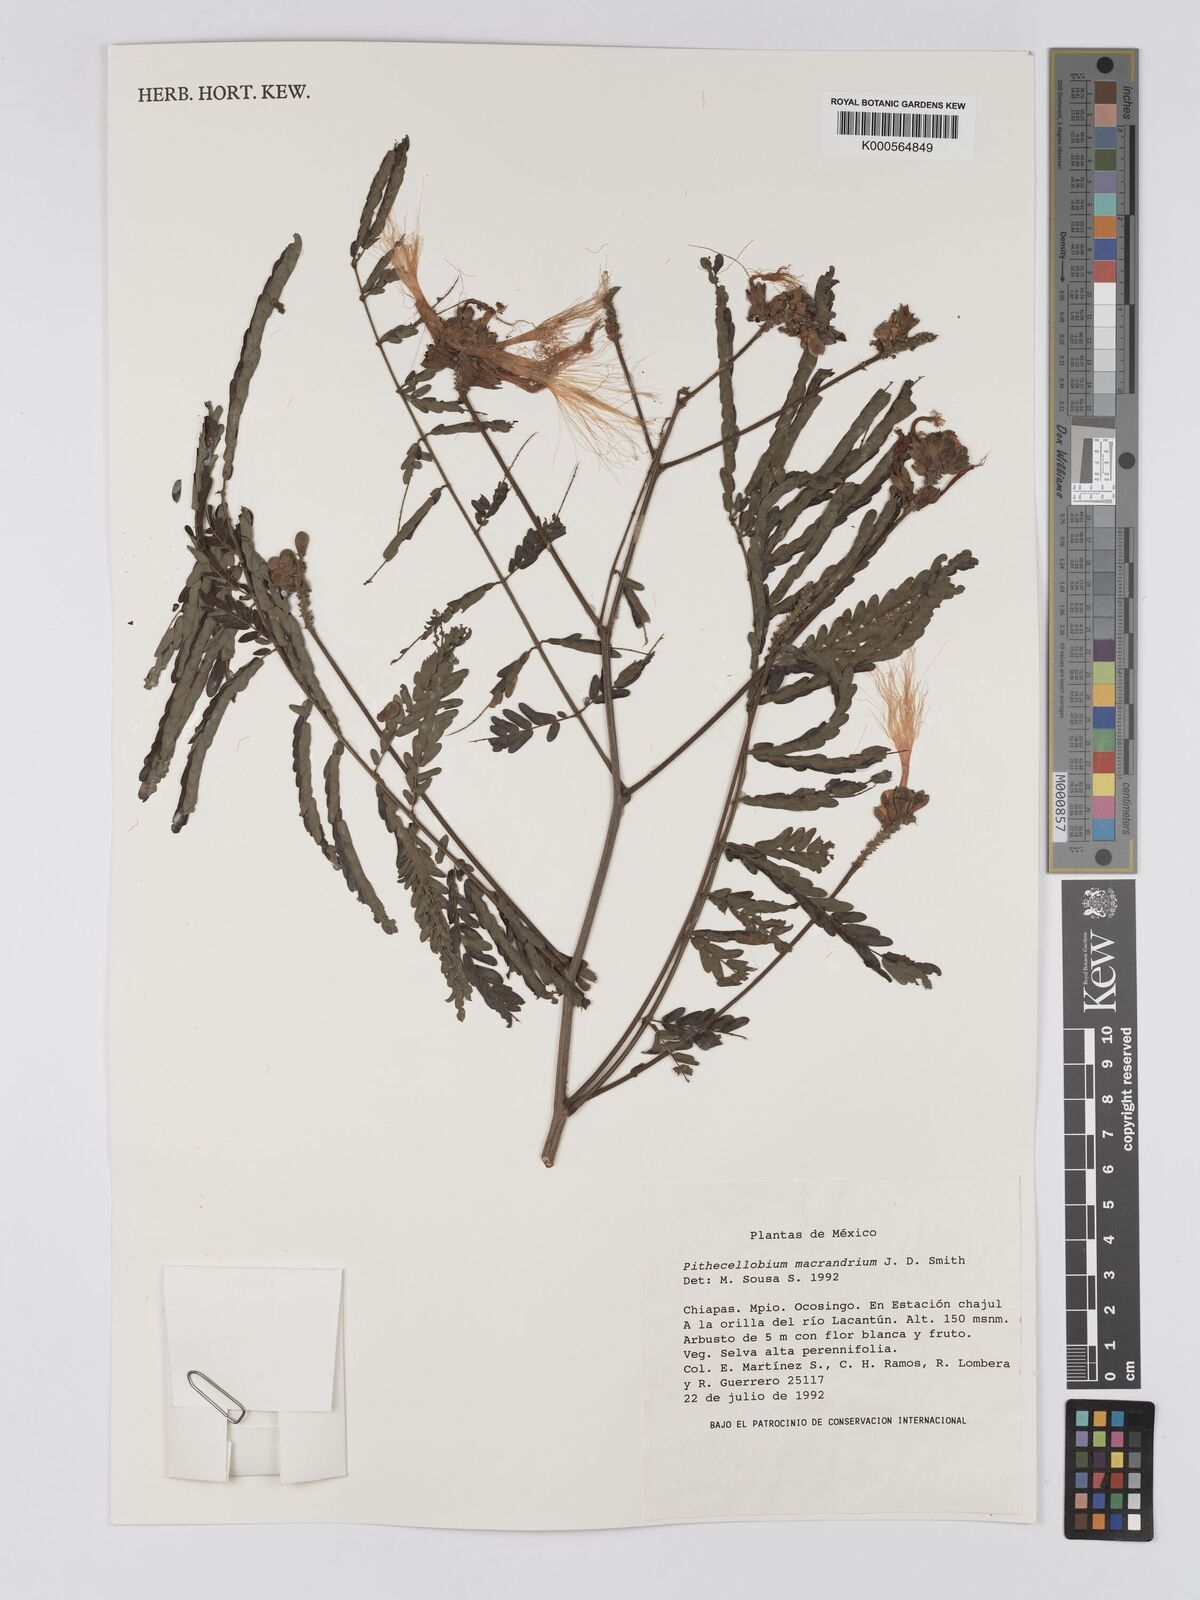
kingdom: Plantae
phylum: Tracheophyta
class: Magnoliopsida
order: Fabales
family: Fabaceae
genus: Pithecellobium
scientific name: Pithecellobium macrandrium
